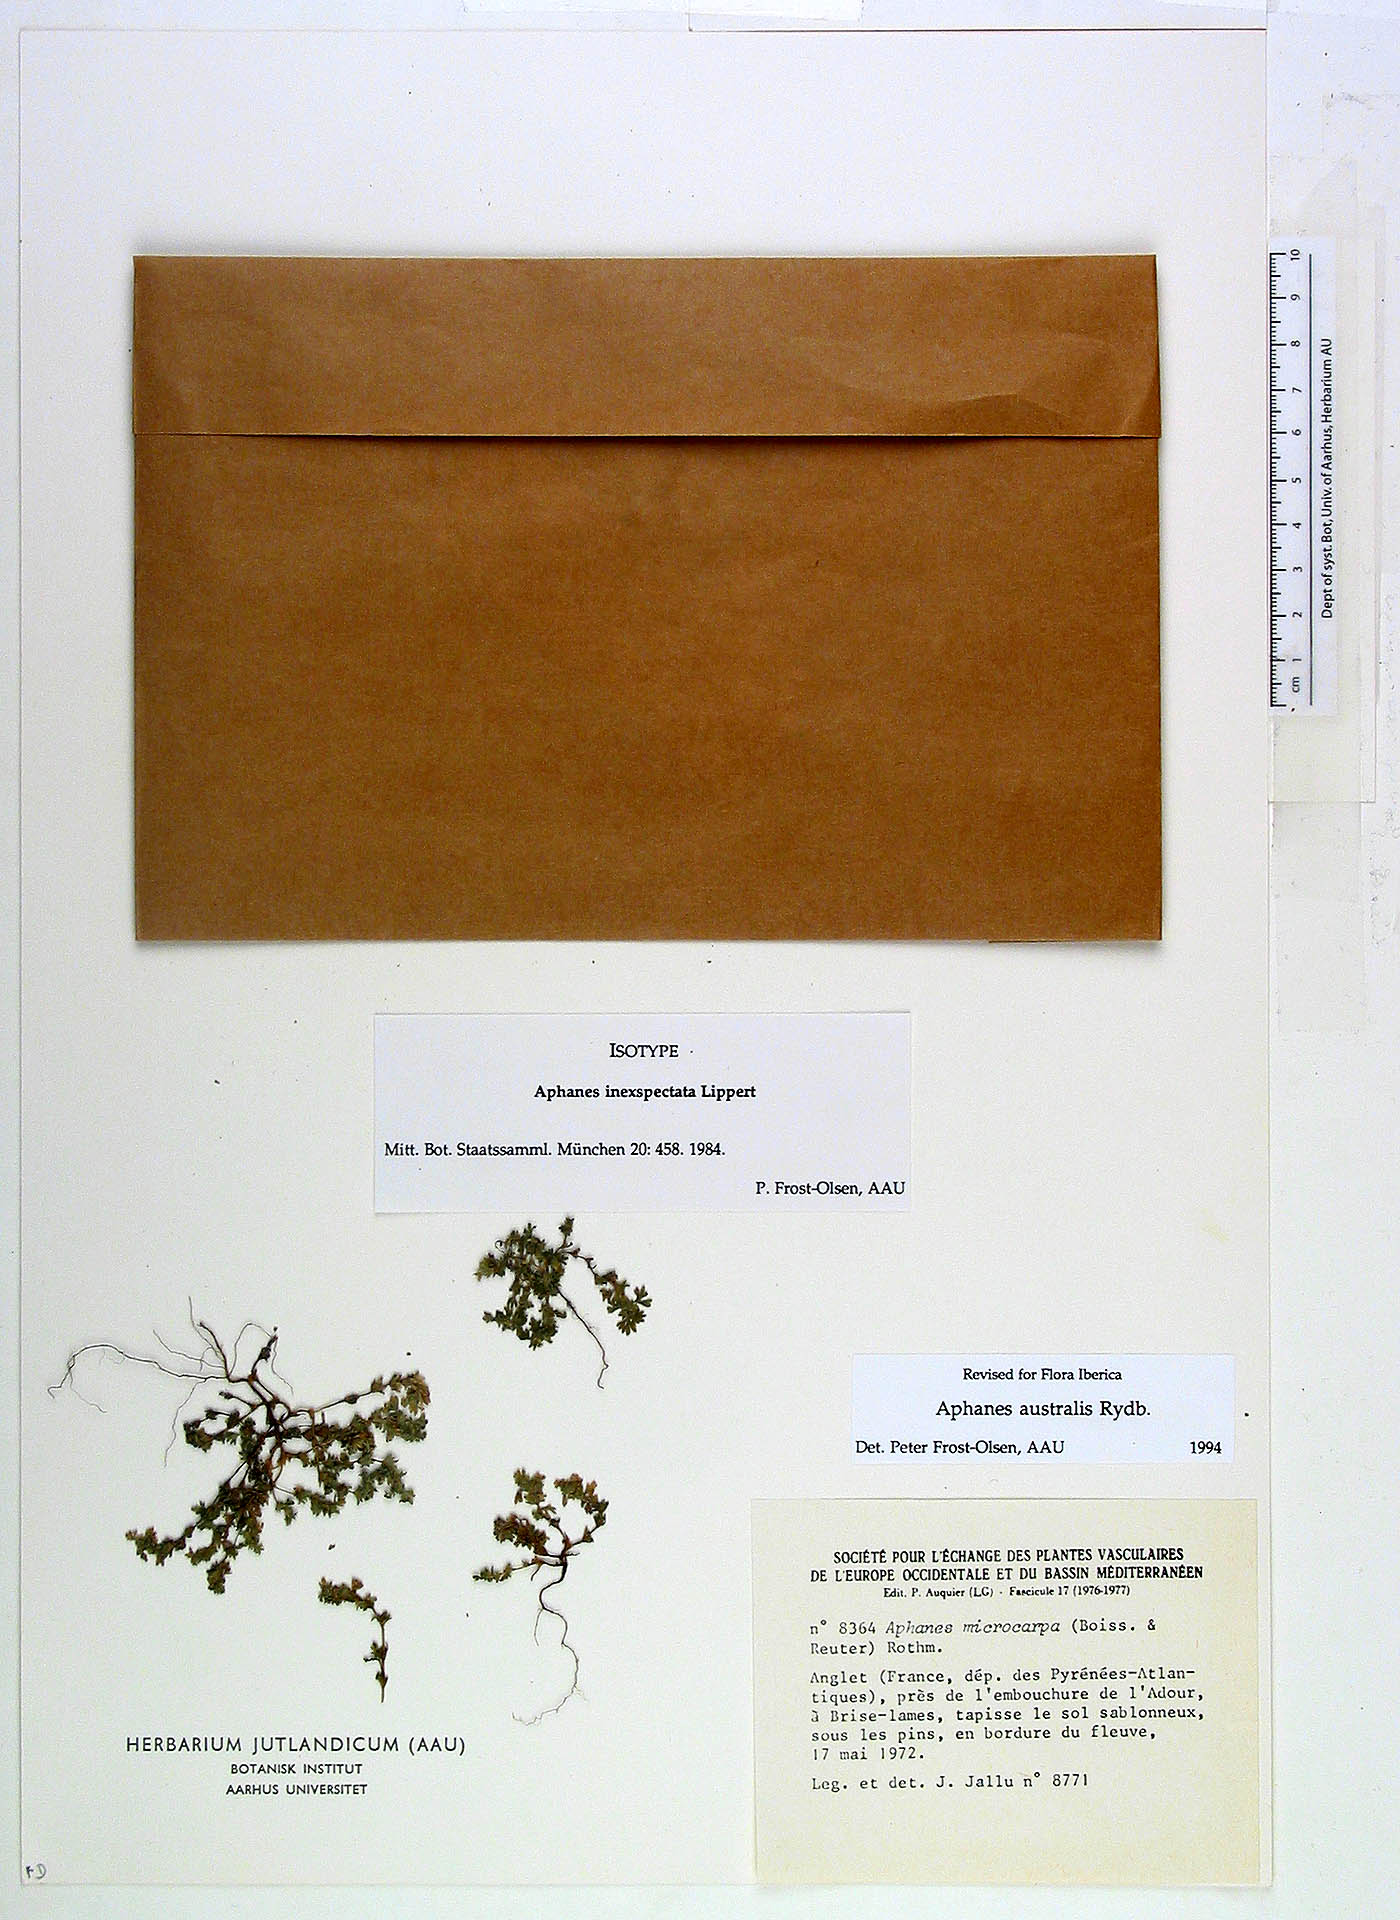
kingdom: Plantae
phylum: Tracheophyta
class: Magnoliopsida
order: Rosales
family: Rosaceae
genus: Aphanes
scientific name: Aphanes australis
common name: Slender parsley-piert
